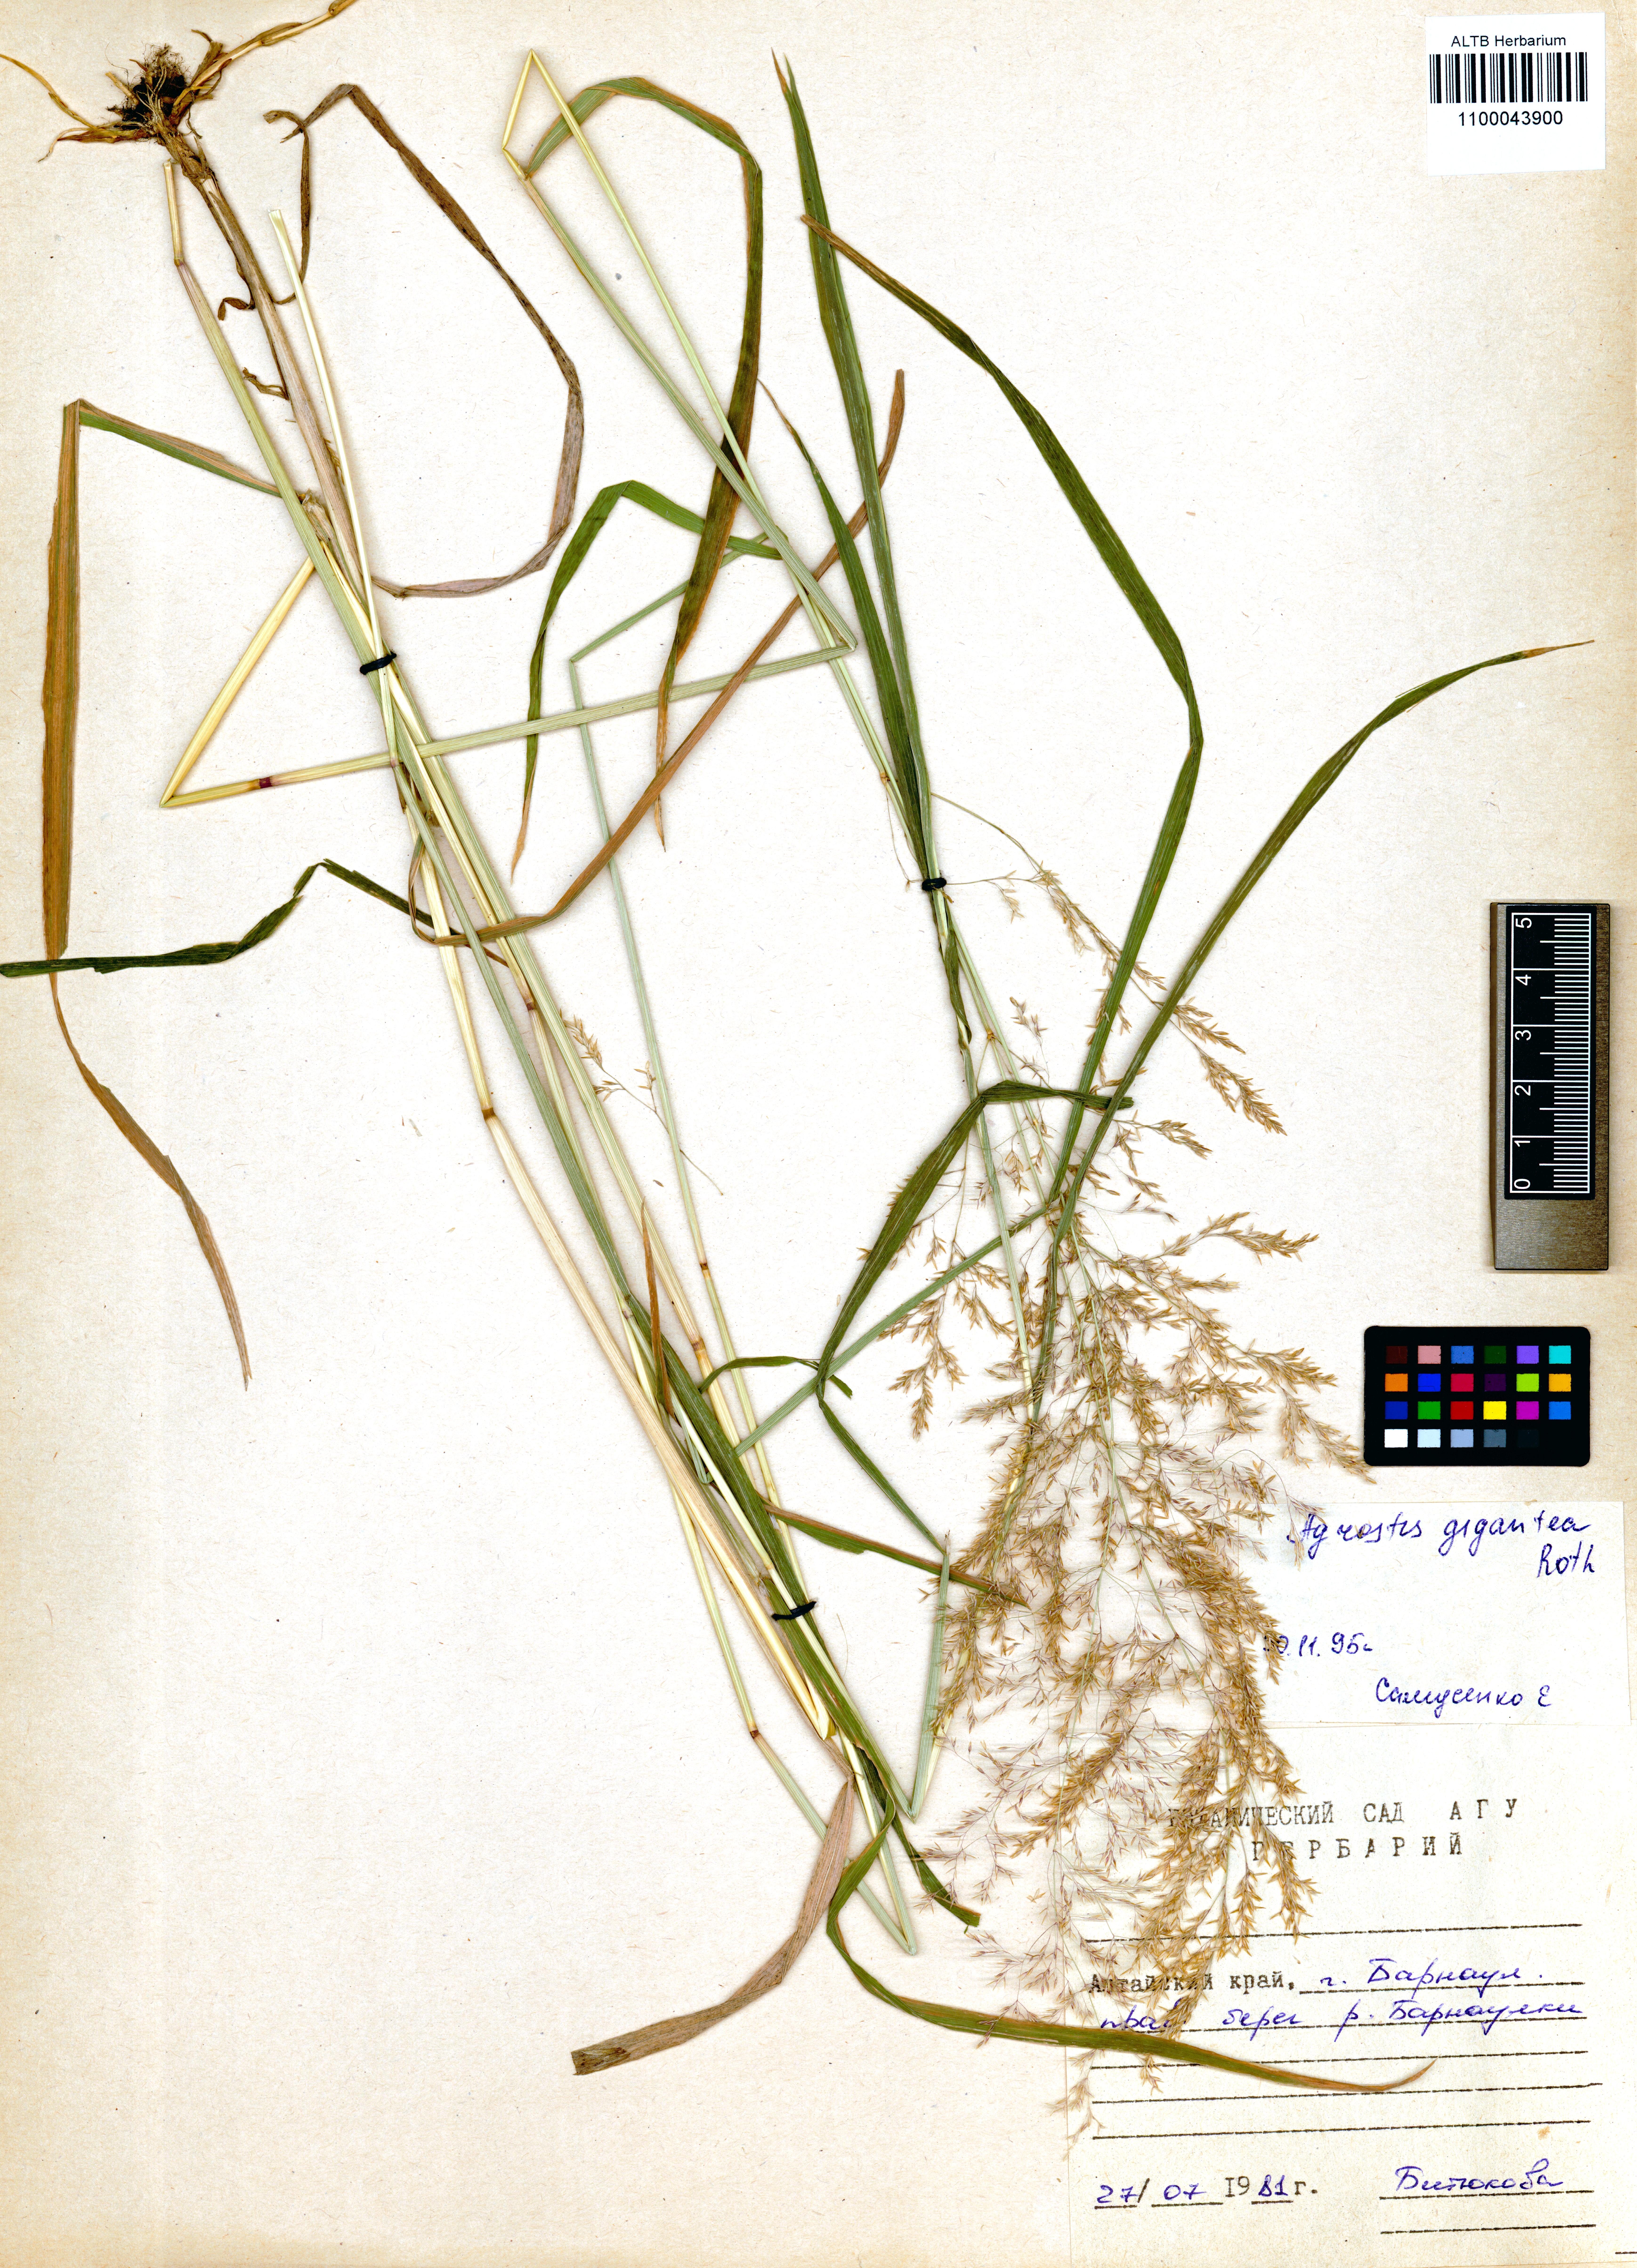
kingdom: Plantae
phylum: Tracheophyta
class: Liliopsida
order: Poales
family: Poaceae
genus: Agrostis
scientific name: Agrostis gigantea
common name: Black bent
